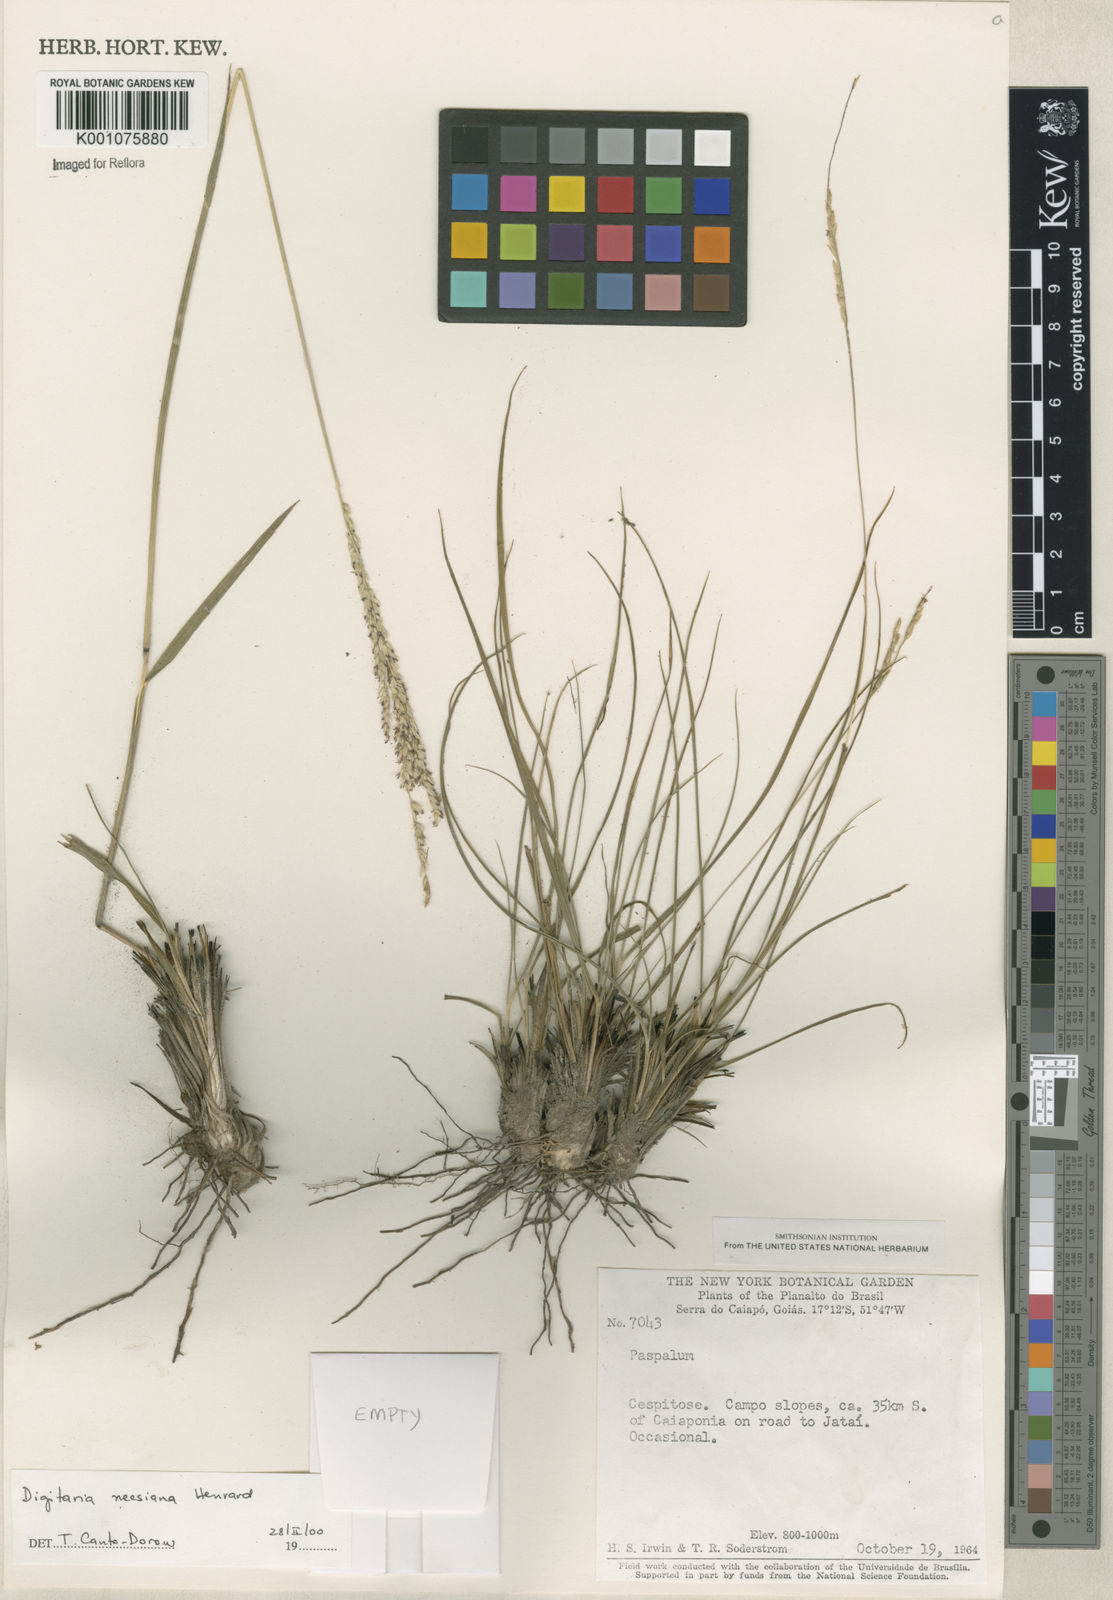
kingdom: Plantae
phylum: Tracheophyta
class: Liliopsida
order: Poales
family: Poaceae
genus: Digitaria
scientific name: Digitaria neesiana
